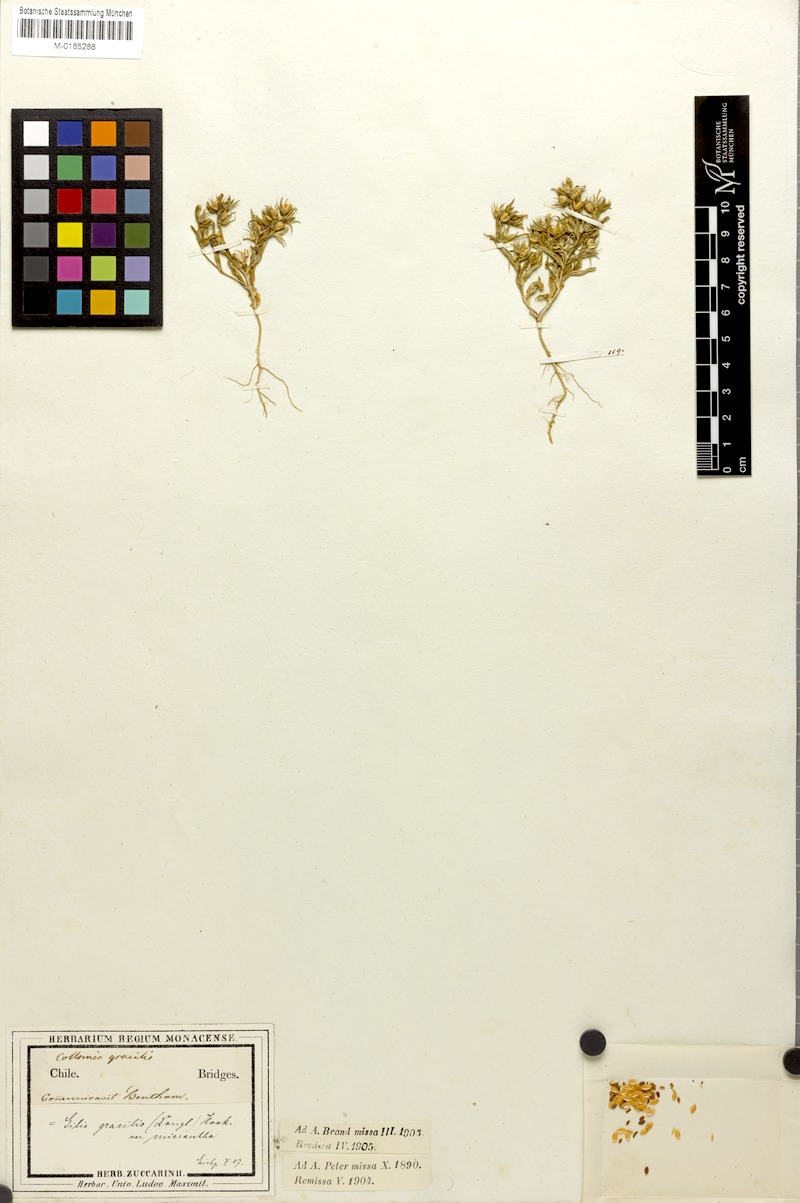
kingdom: Plantae
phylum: Tracheophyta
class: Magnoliopsida
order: Ericales
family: Polemoniaceae
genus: Phlox
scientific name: Phlox gracilis
